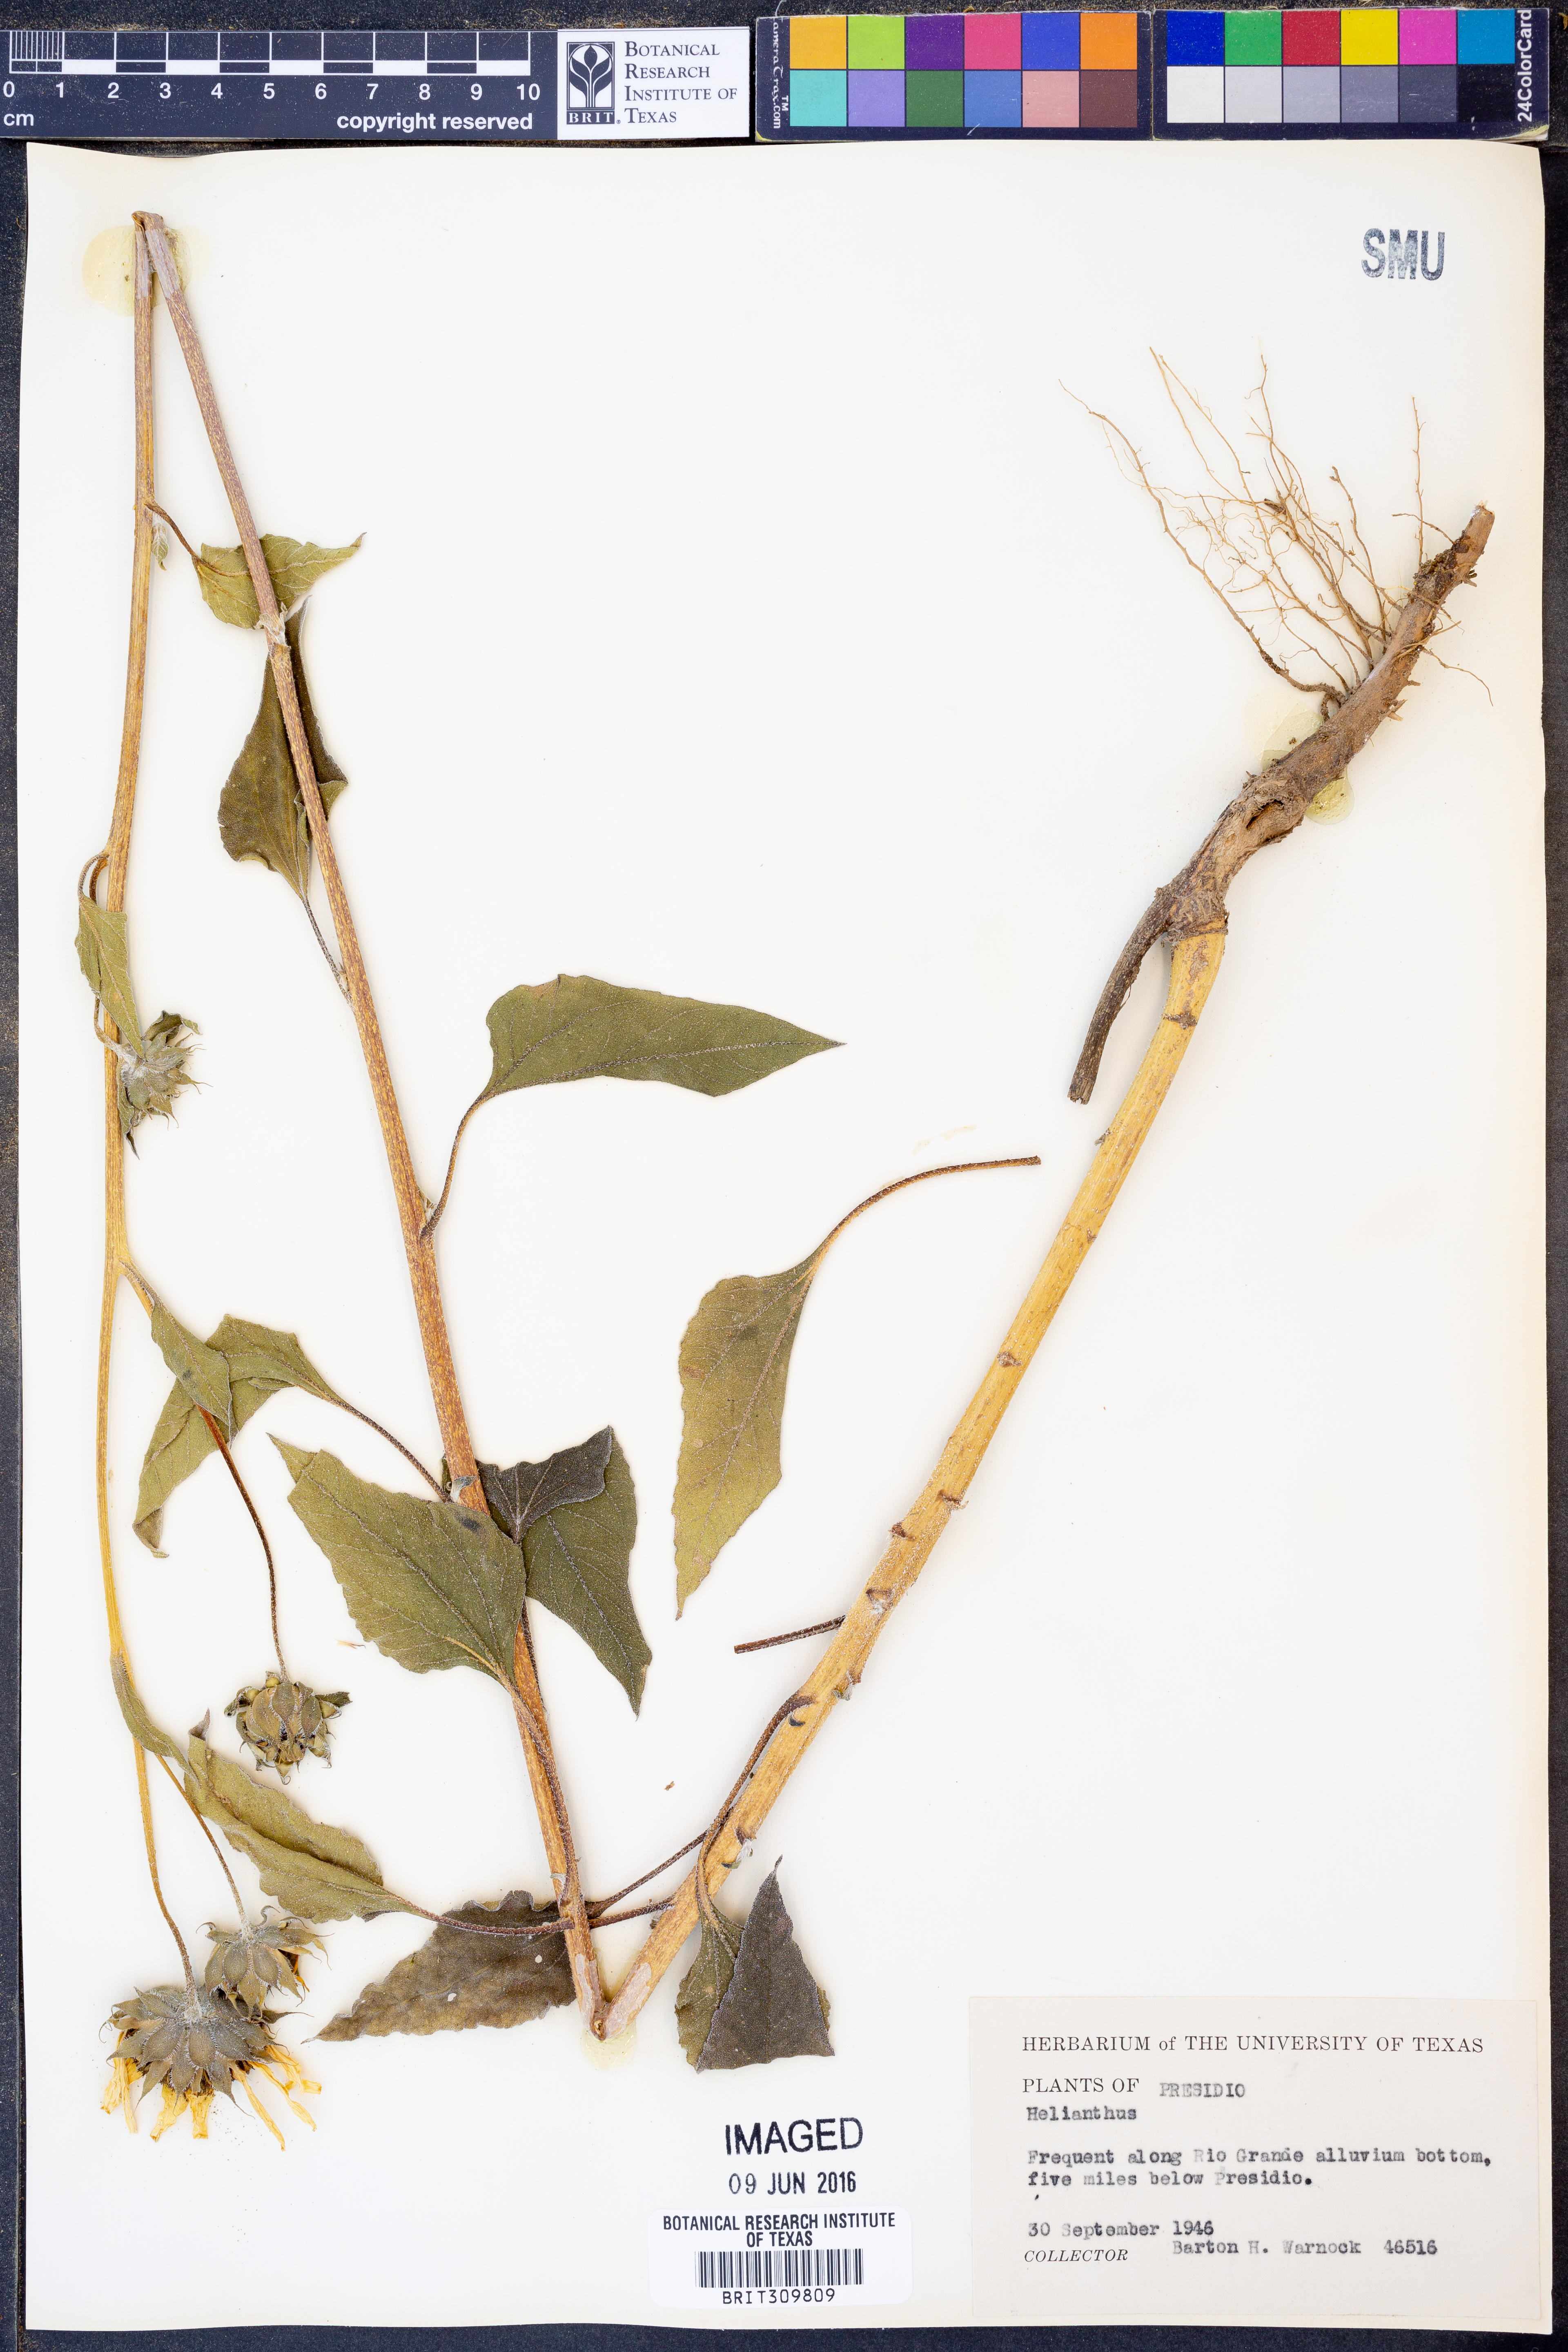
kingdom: Plantae
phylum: Tracheophyta
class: Magnoliopsida
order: Asterales
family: Asteraceae
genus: Helianthus
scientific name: Helianthus
